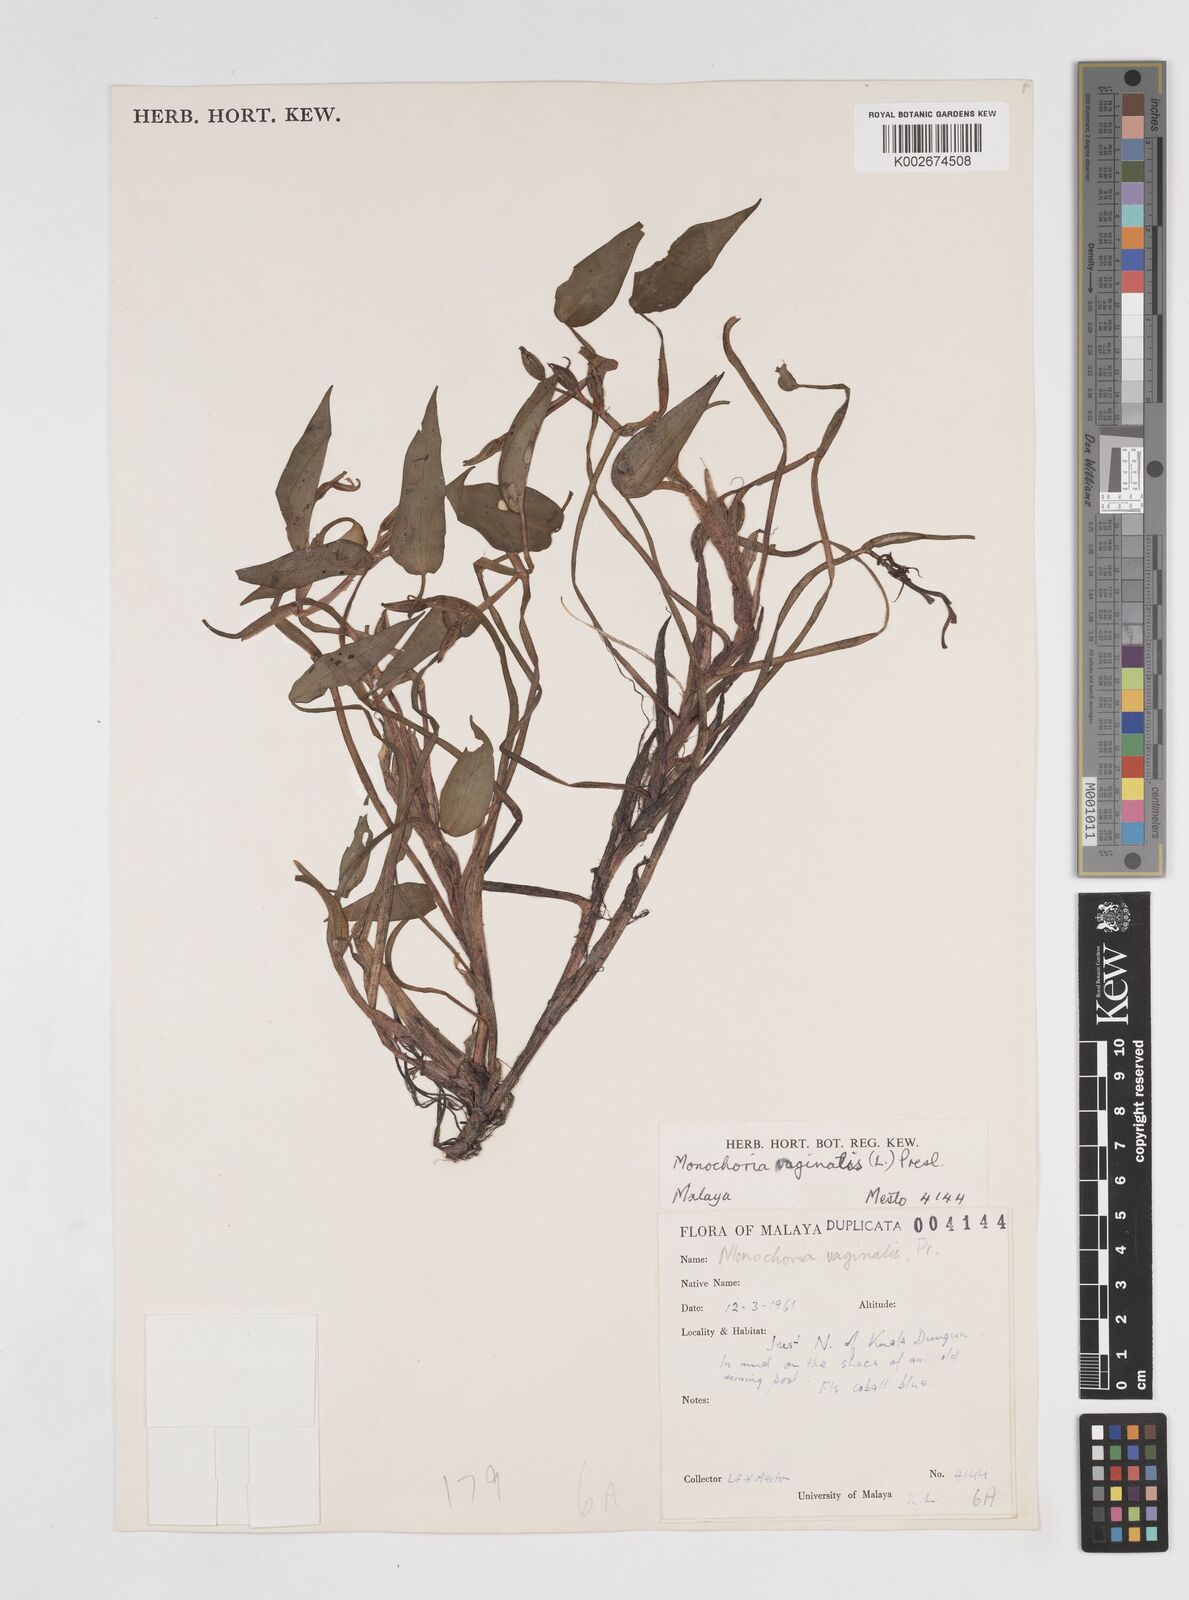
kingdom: Plantae
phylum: Tracheophyta
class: Liliopsida
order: Commelinales
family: Pontederiaceae
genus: Pontederia
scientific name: Pontederia vaginalis
